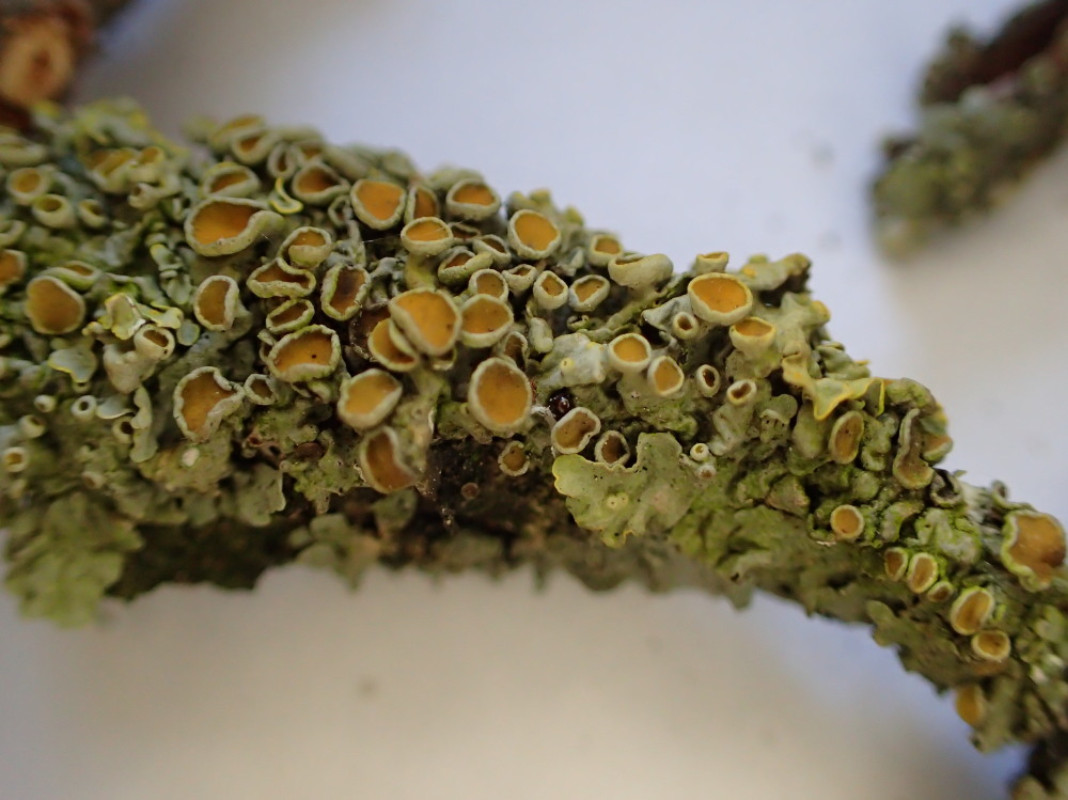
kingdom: Fungi
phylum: Ascomycota
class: Lecanoromycetes
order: Teloschistales
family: Teloschistaceae
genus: Xanthoria
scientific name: Xanthoria parietina
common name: almindelig væggelav
